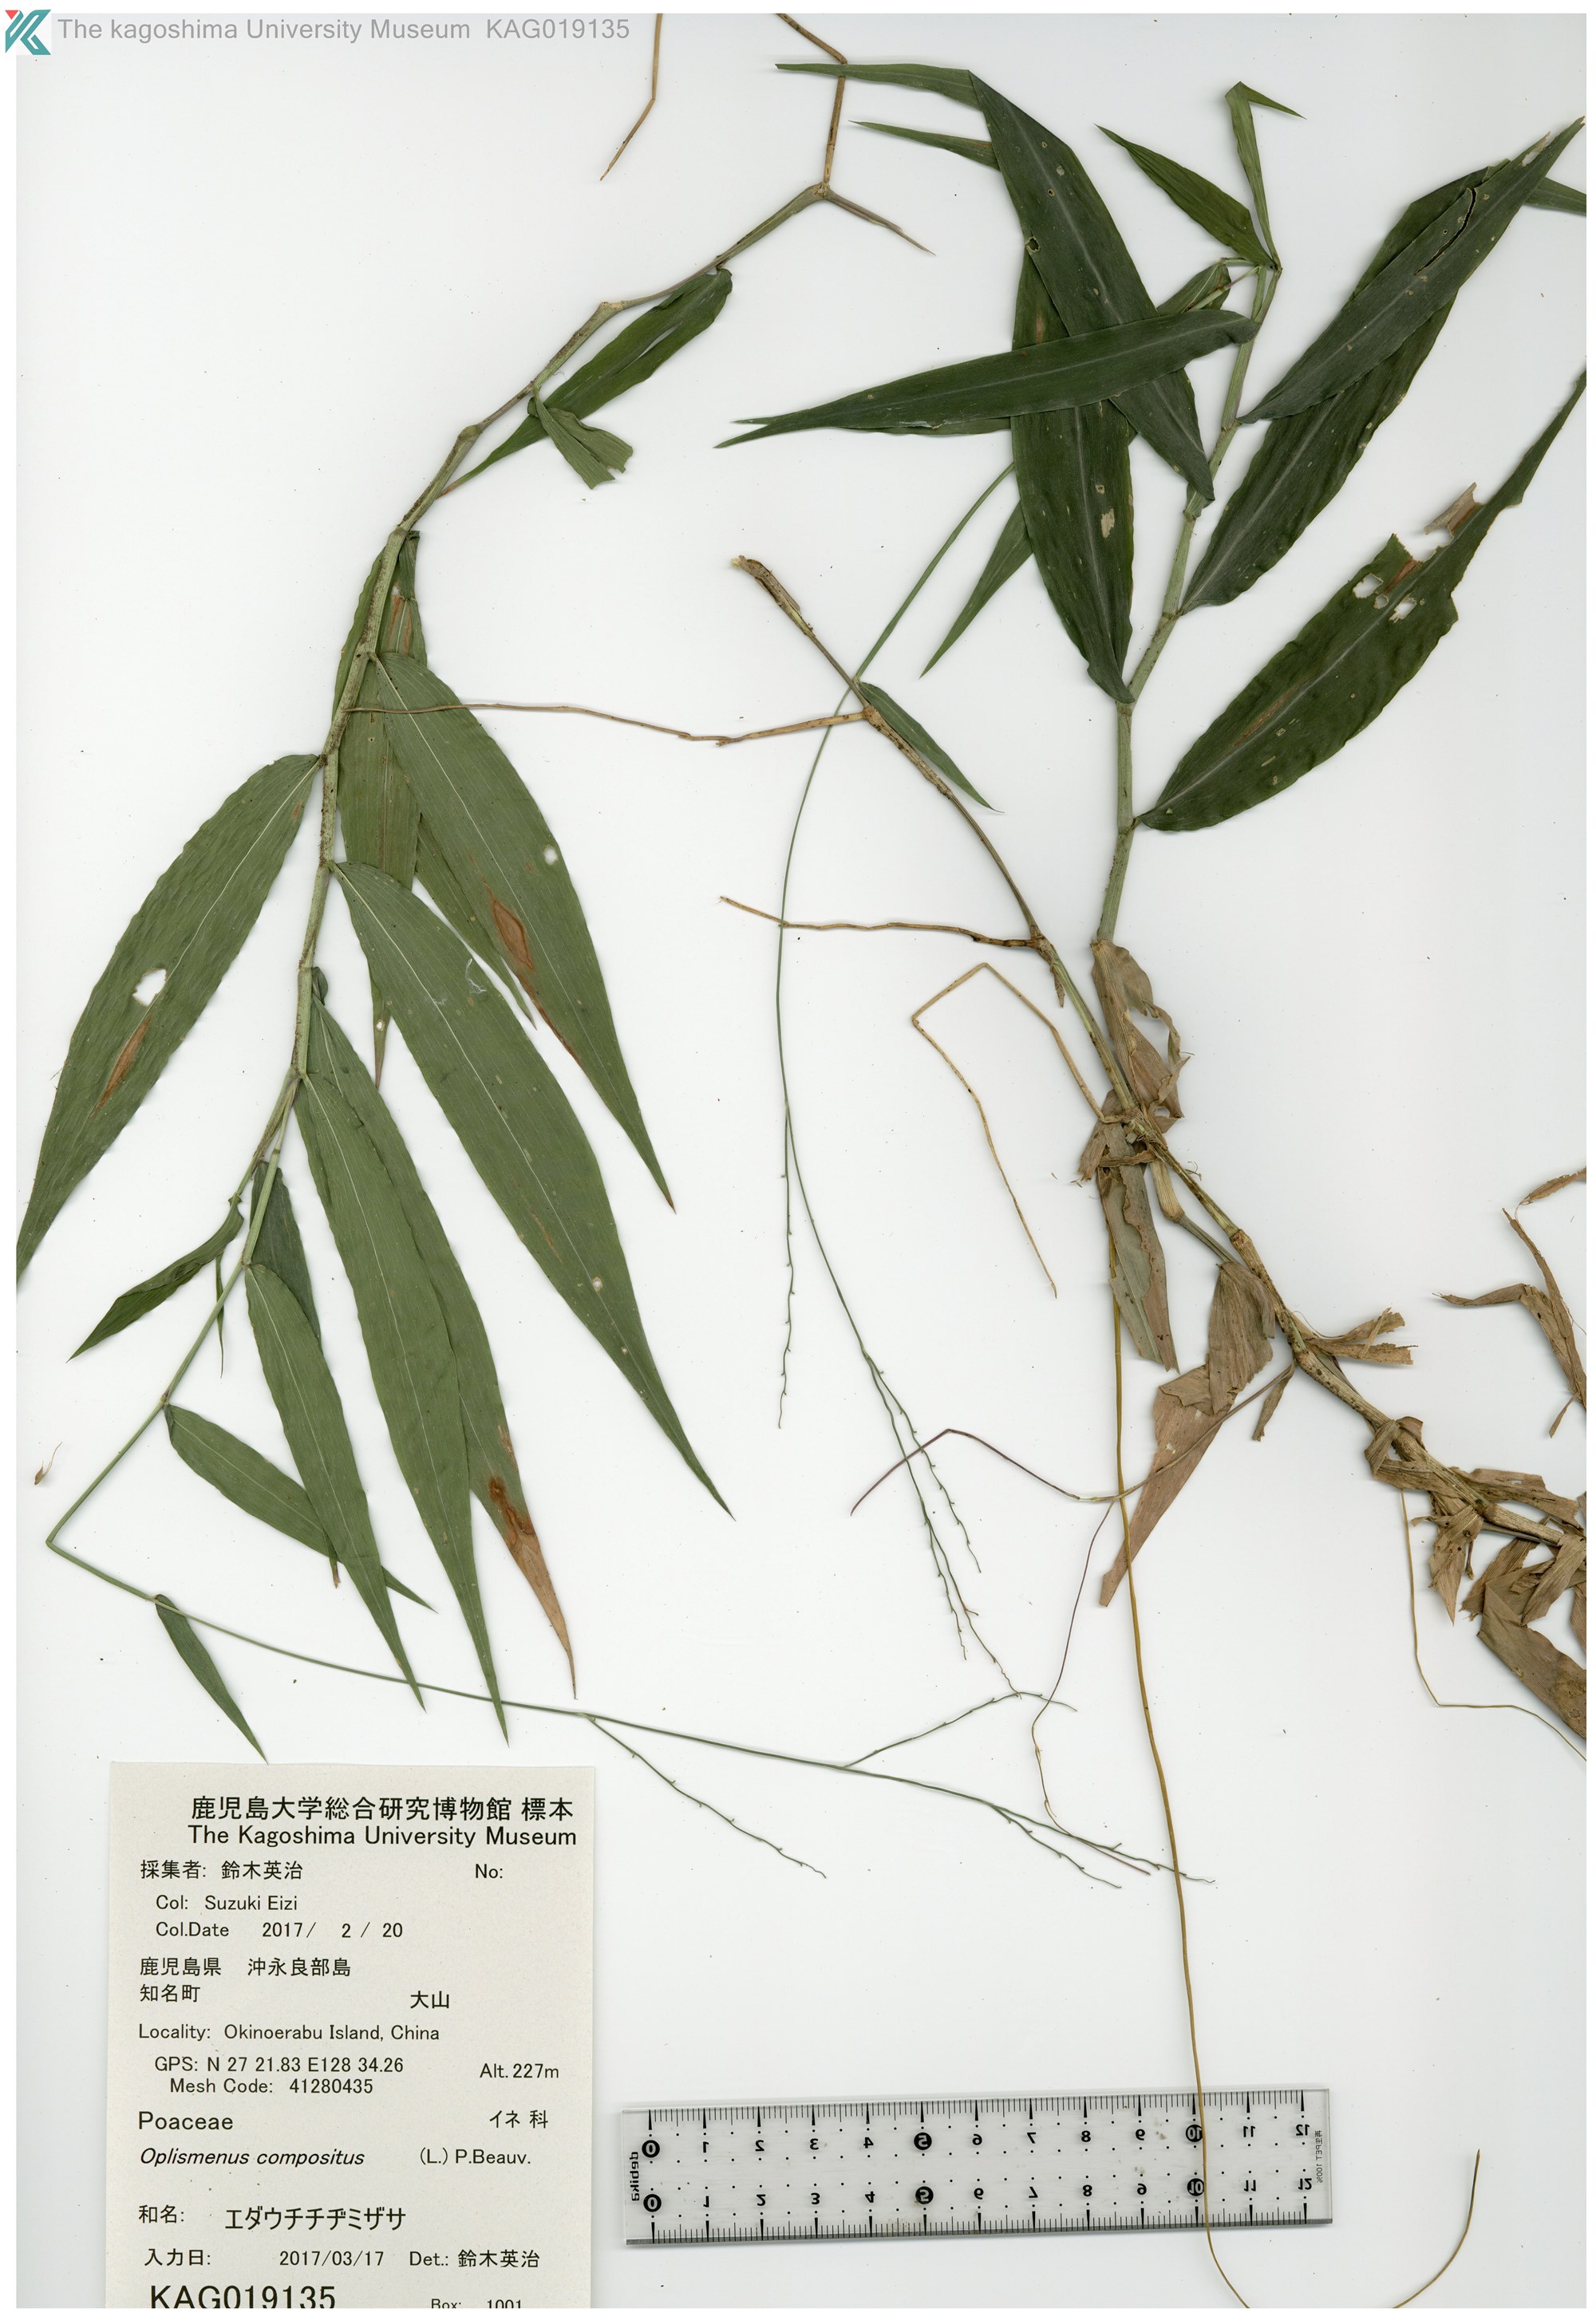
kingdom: Plantae
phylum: Tracheophyta
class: Liliopsida
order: Poales
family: Poaceae
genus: Oplismenus
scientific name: Oplismenus compositus
